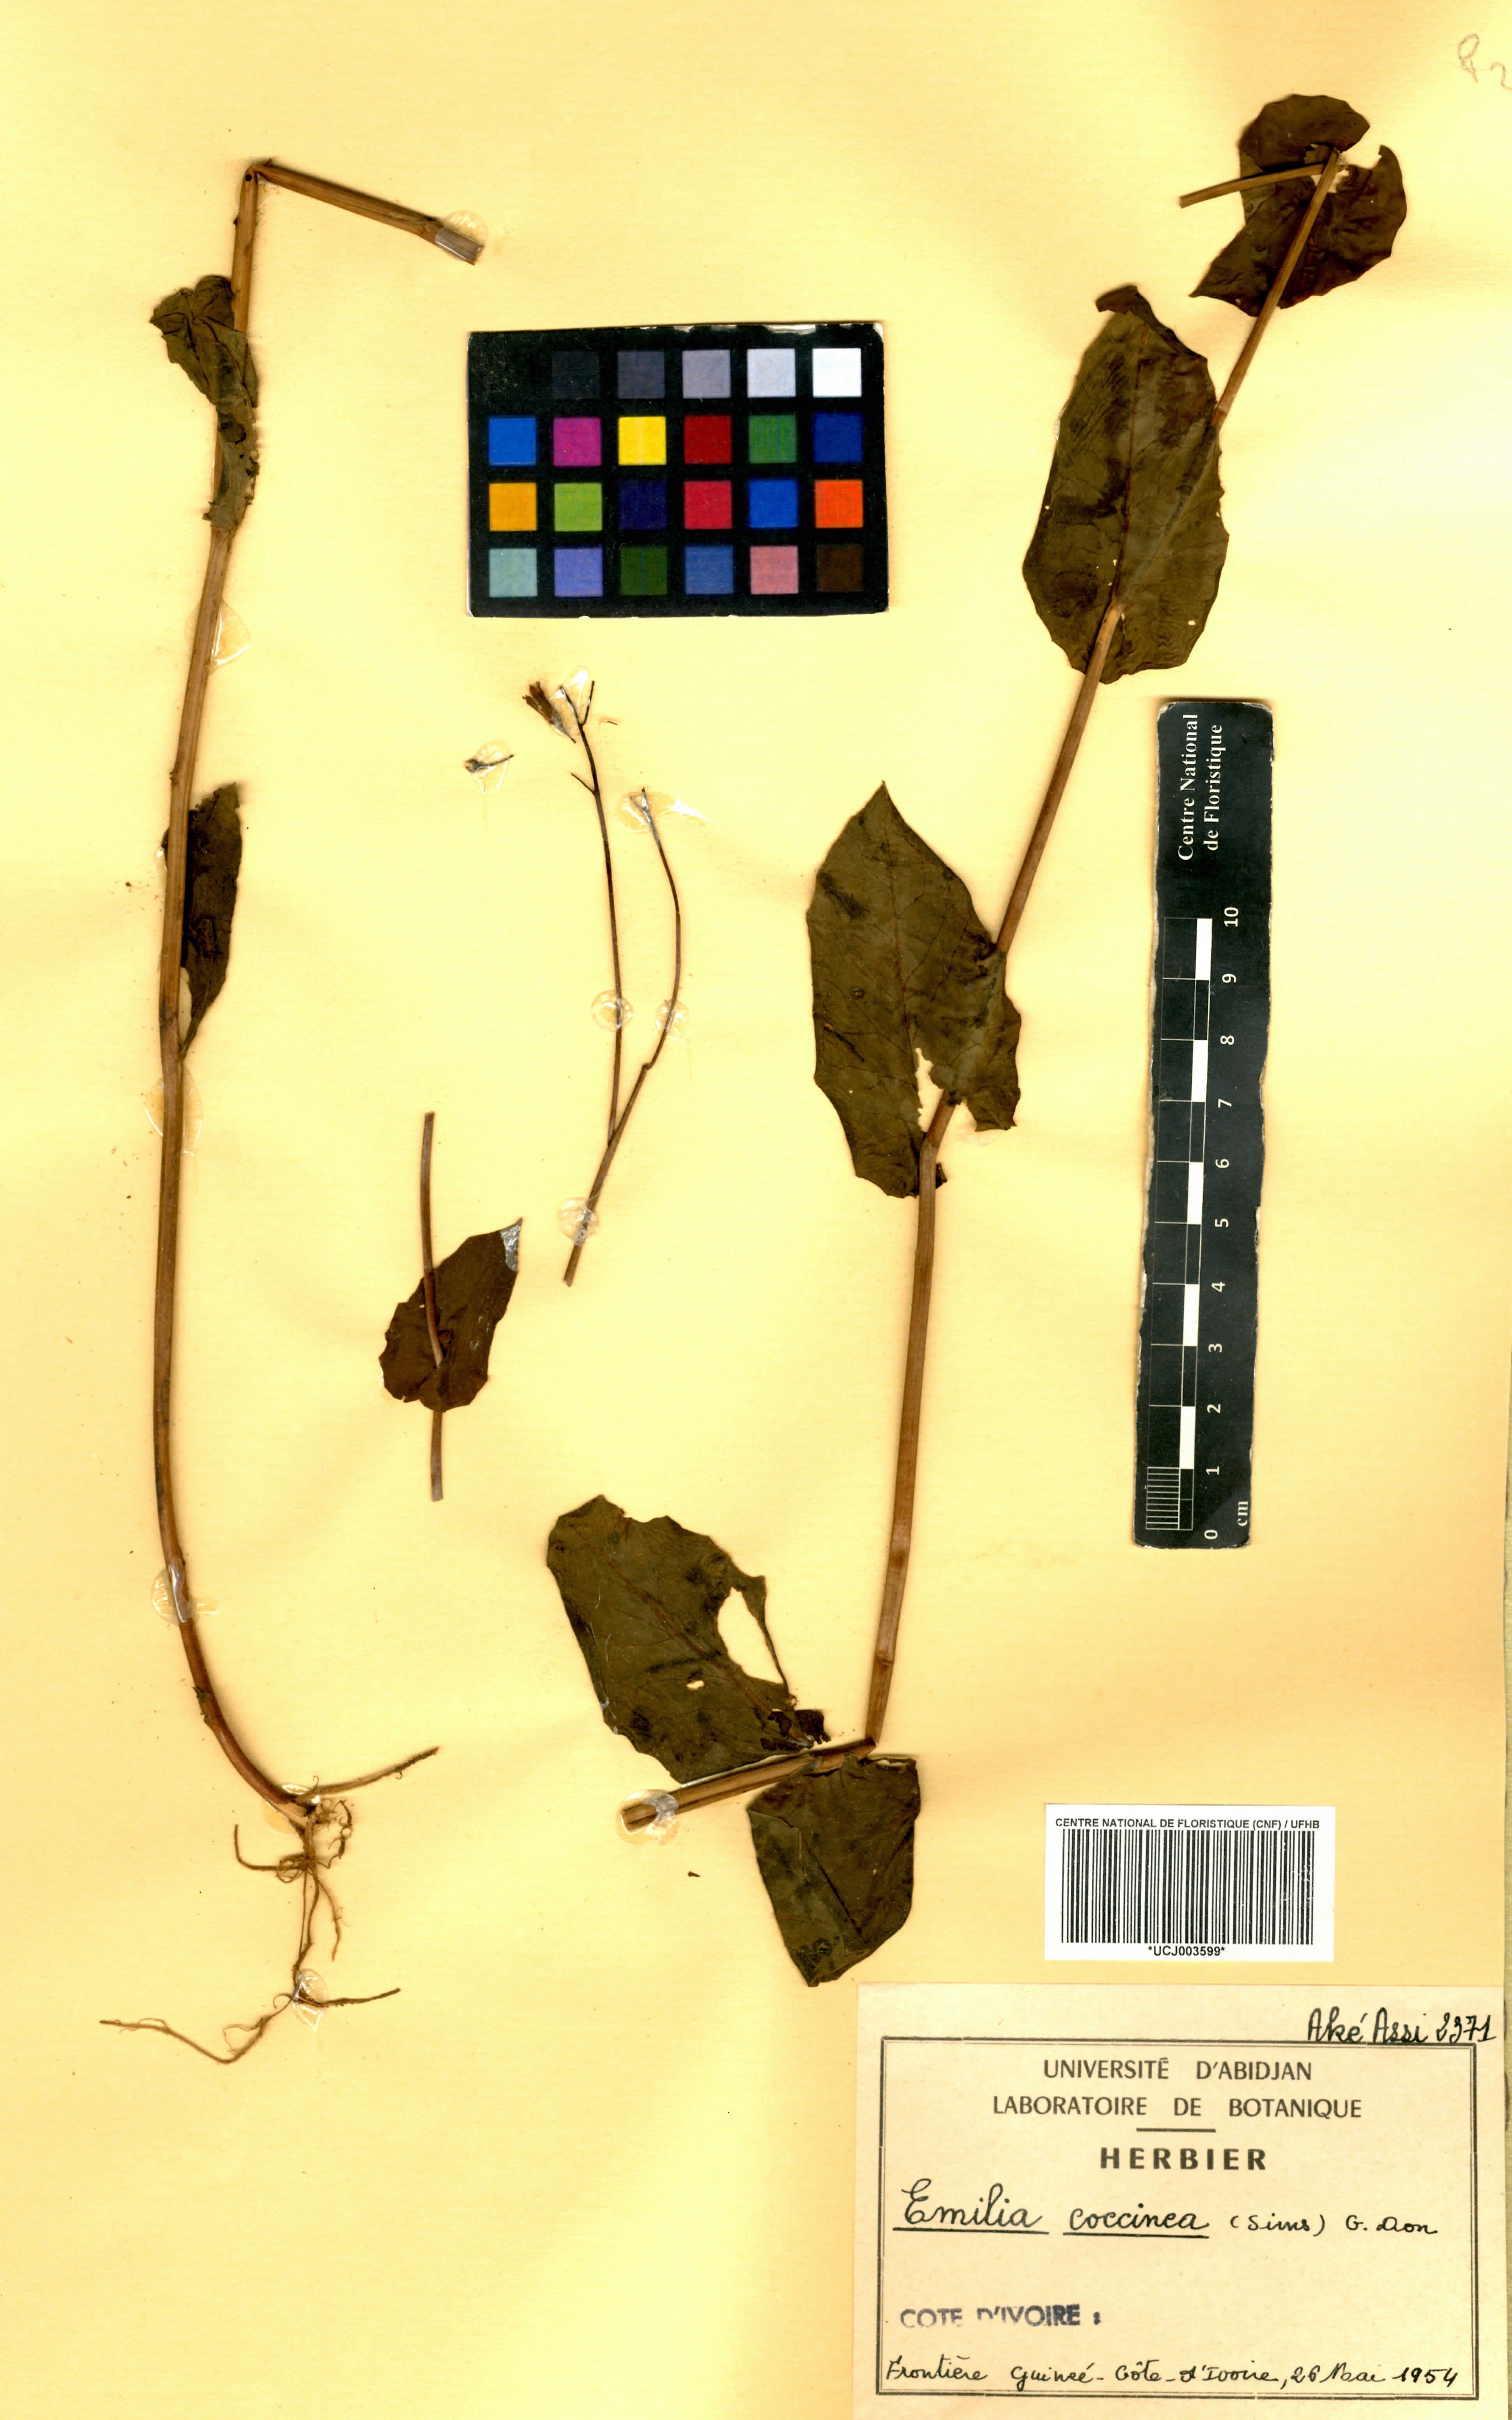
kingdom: Plantae
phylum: Tracheophyta
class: Magnoliopsida
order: Asterales
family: Asteraceae
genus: Emilia
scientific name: Emilia coccinea
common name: Scarlet tasselflower
